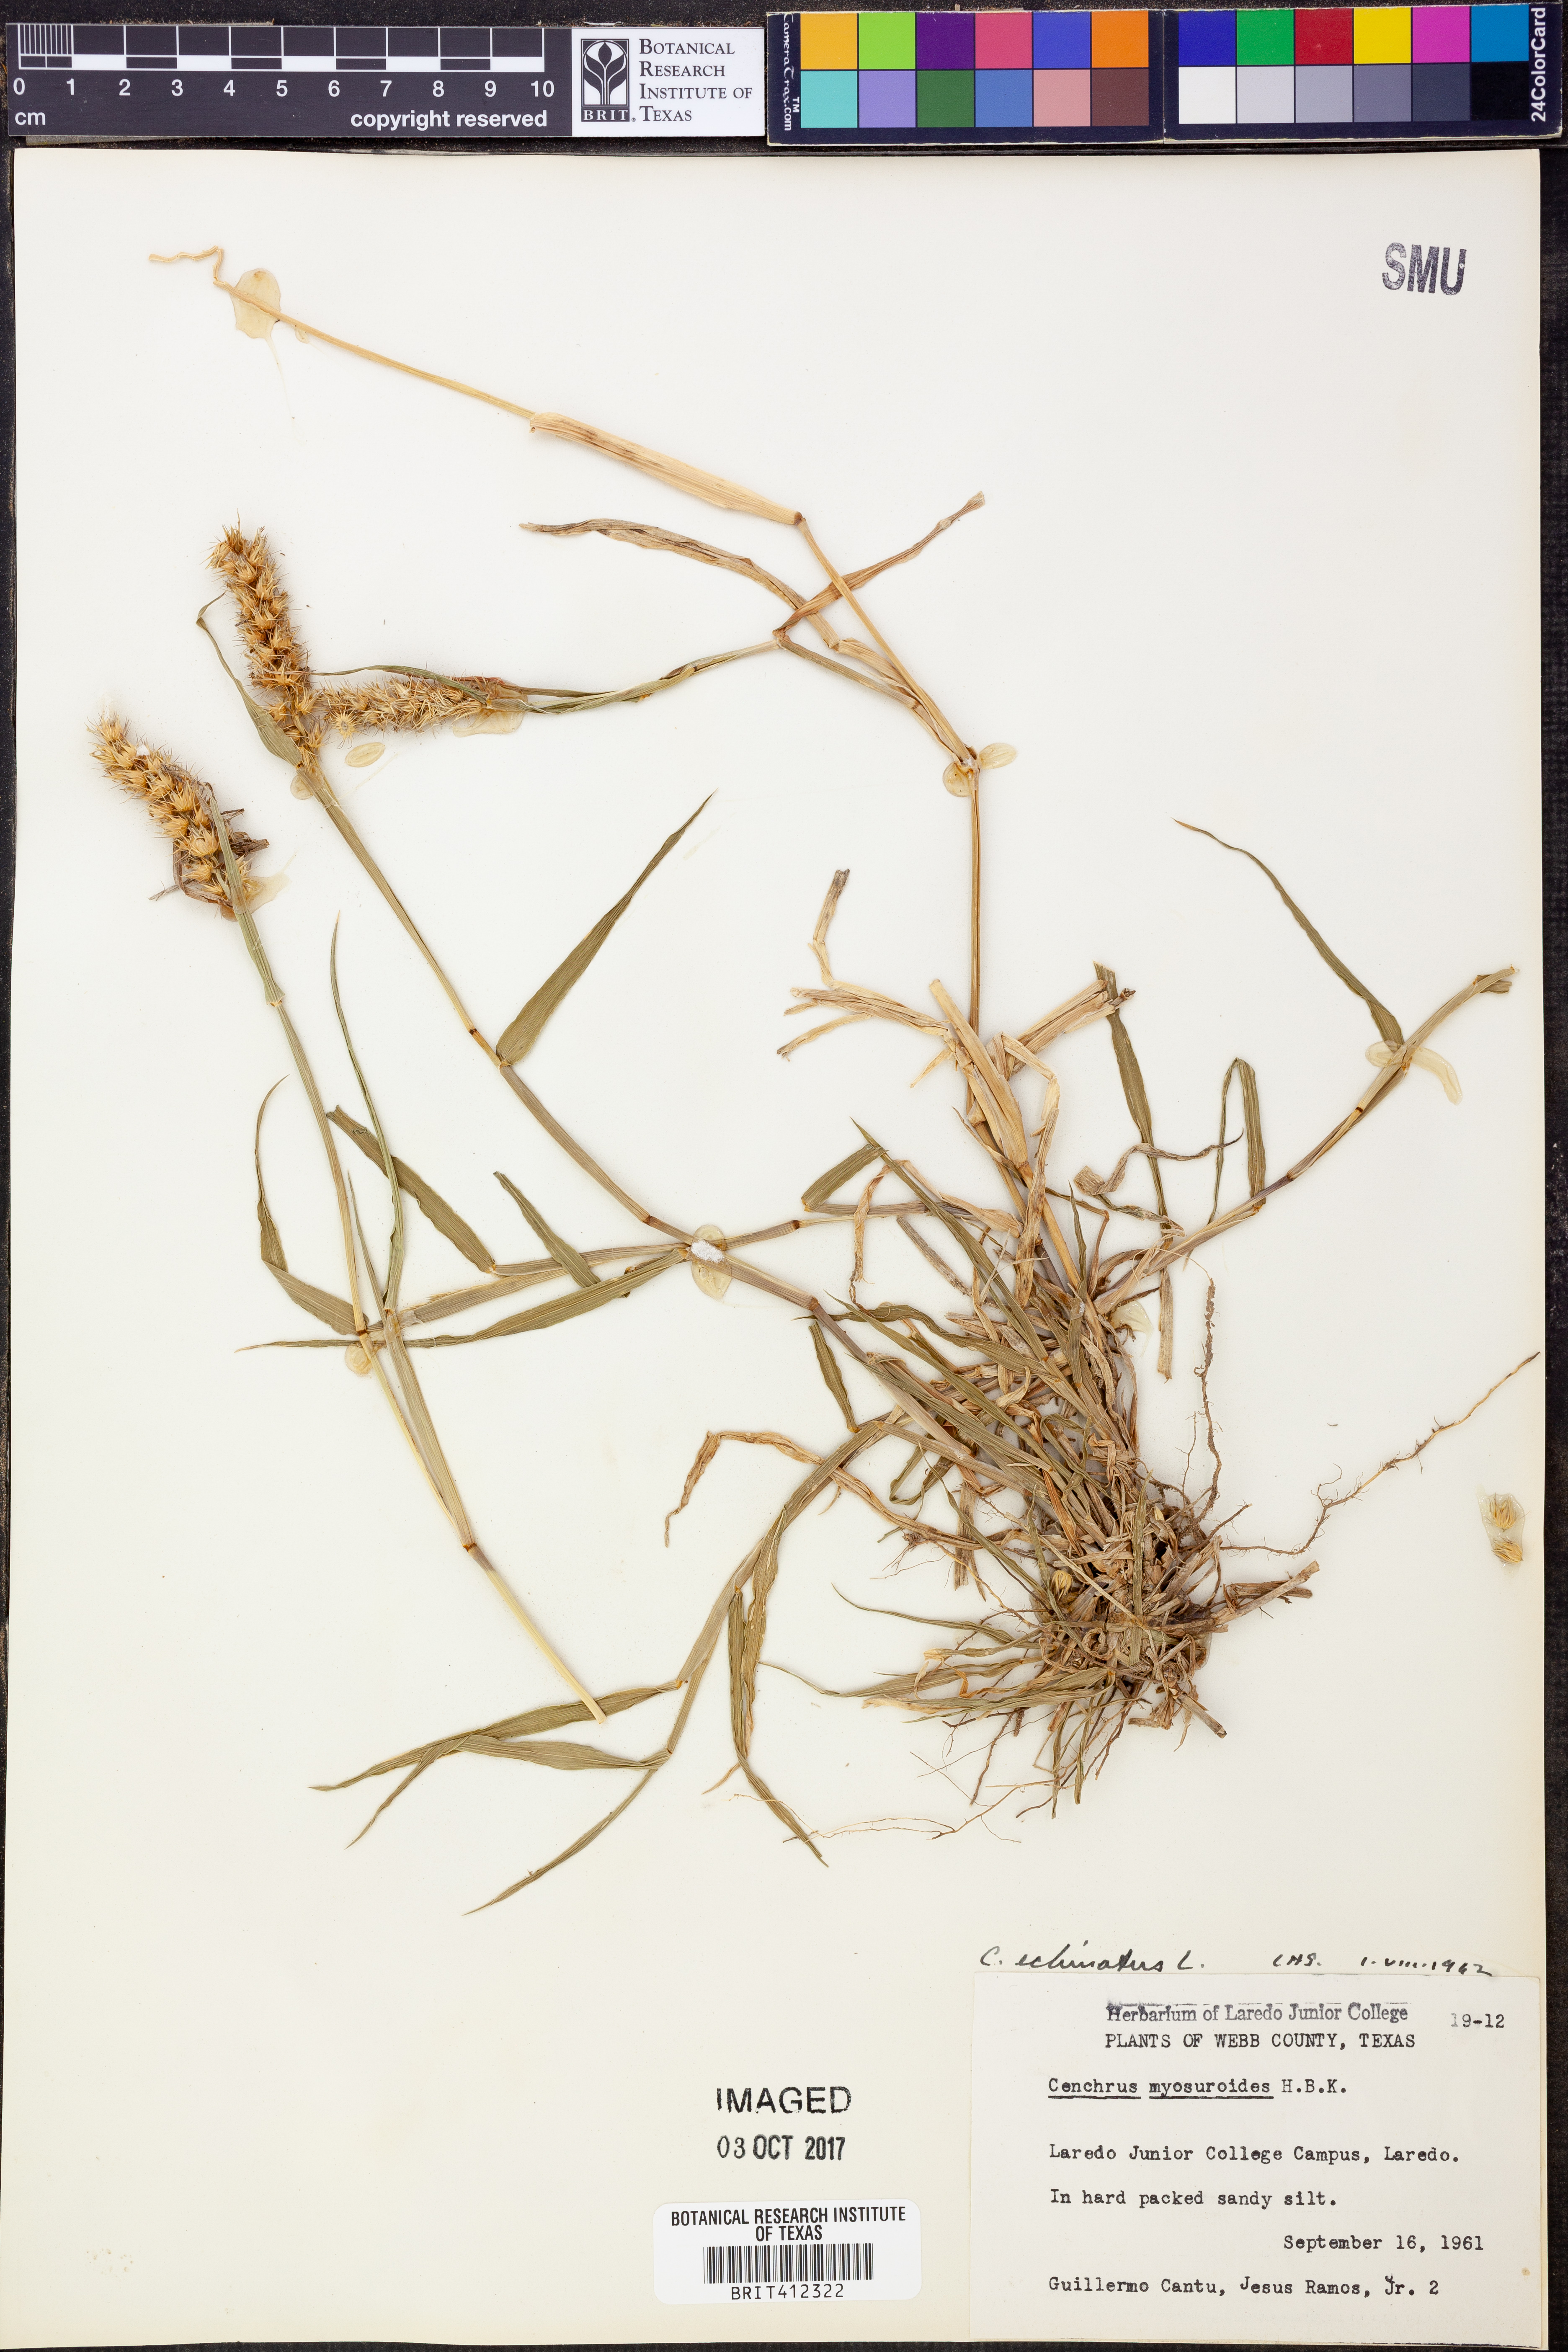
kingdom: Plantae
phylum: Tracheophyta
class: Liliopsida
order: Poales
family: Poaceae
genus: Cenchrus
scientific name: Cenchrus echinatus
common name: Southern sandbur
